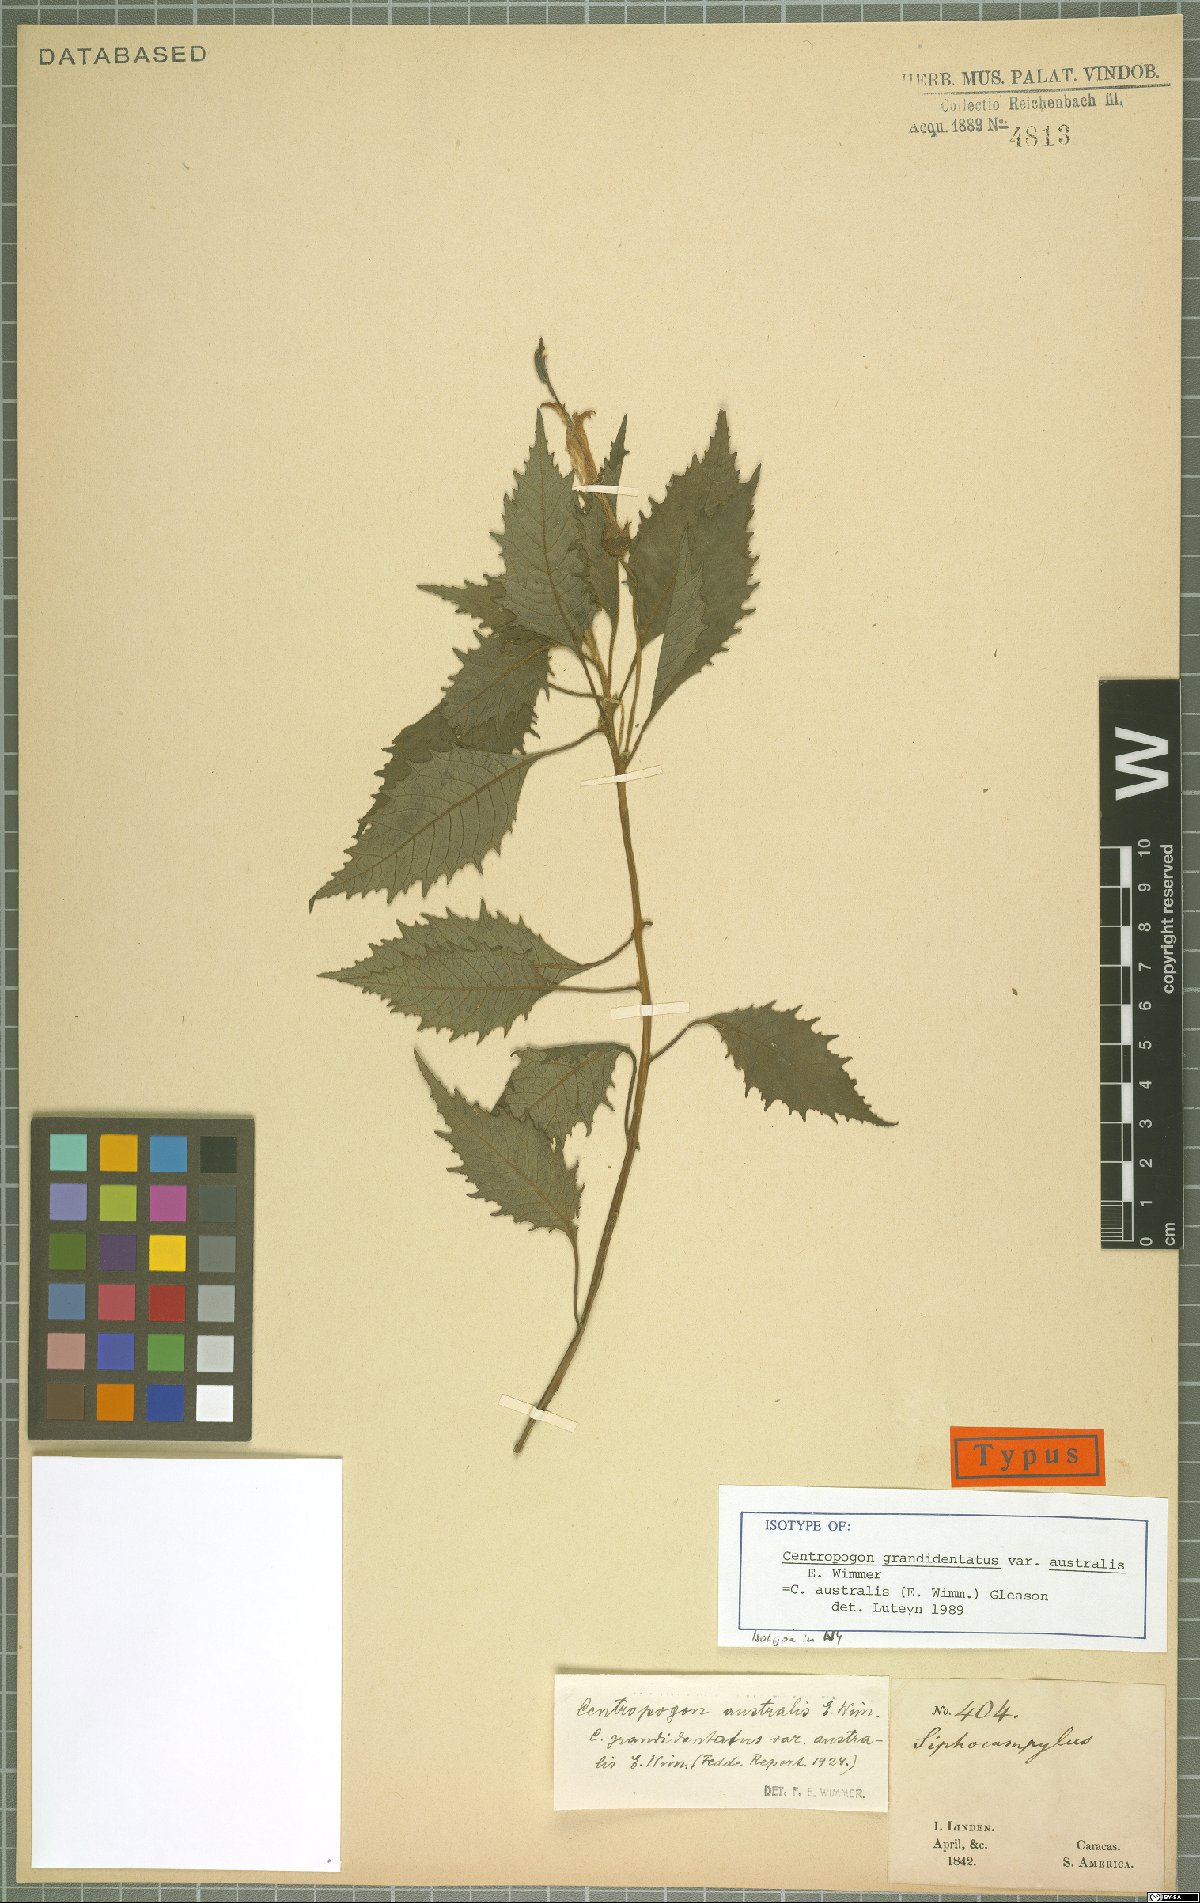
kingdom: Plantae
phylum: Tracheophyta
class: Magnoliopsida
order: Asterales
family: Campanulaceae
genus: Centropogon
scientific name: Centropogon australis
